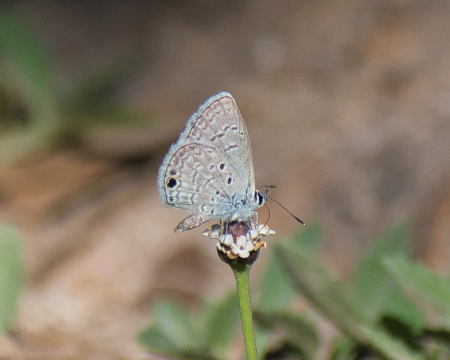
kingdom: Animalia
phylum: Arthropoda
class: Insecta
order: Lepidoptera
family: Lycaenidae
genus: Hemiargus
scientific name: Hemiargus ceraunus
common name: Ceraunus Blue
